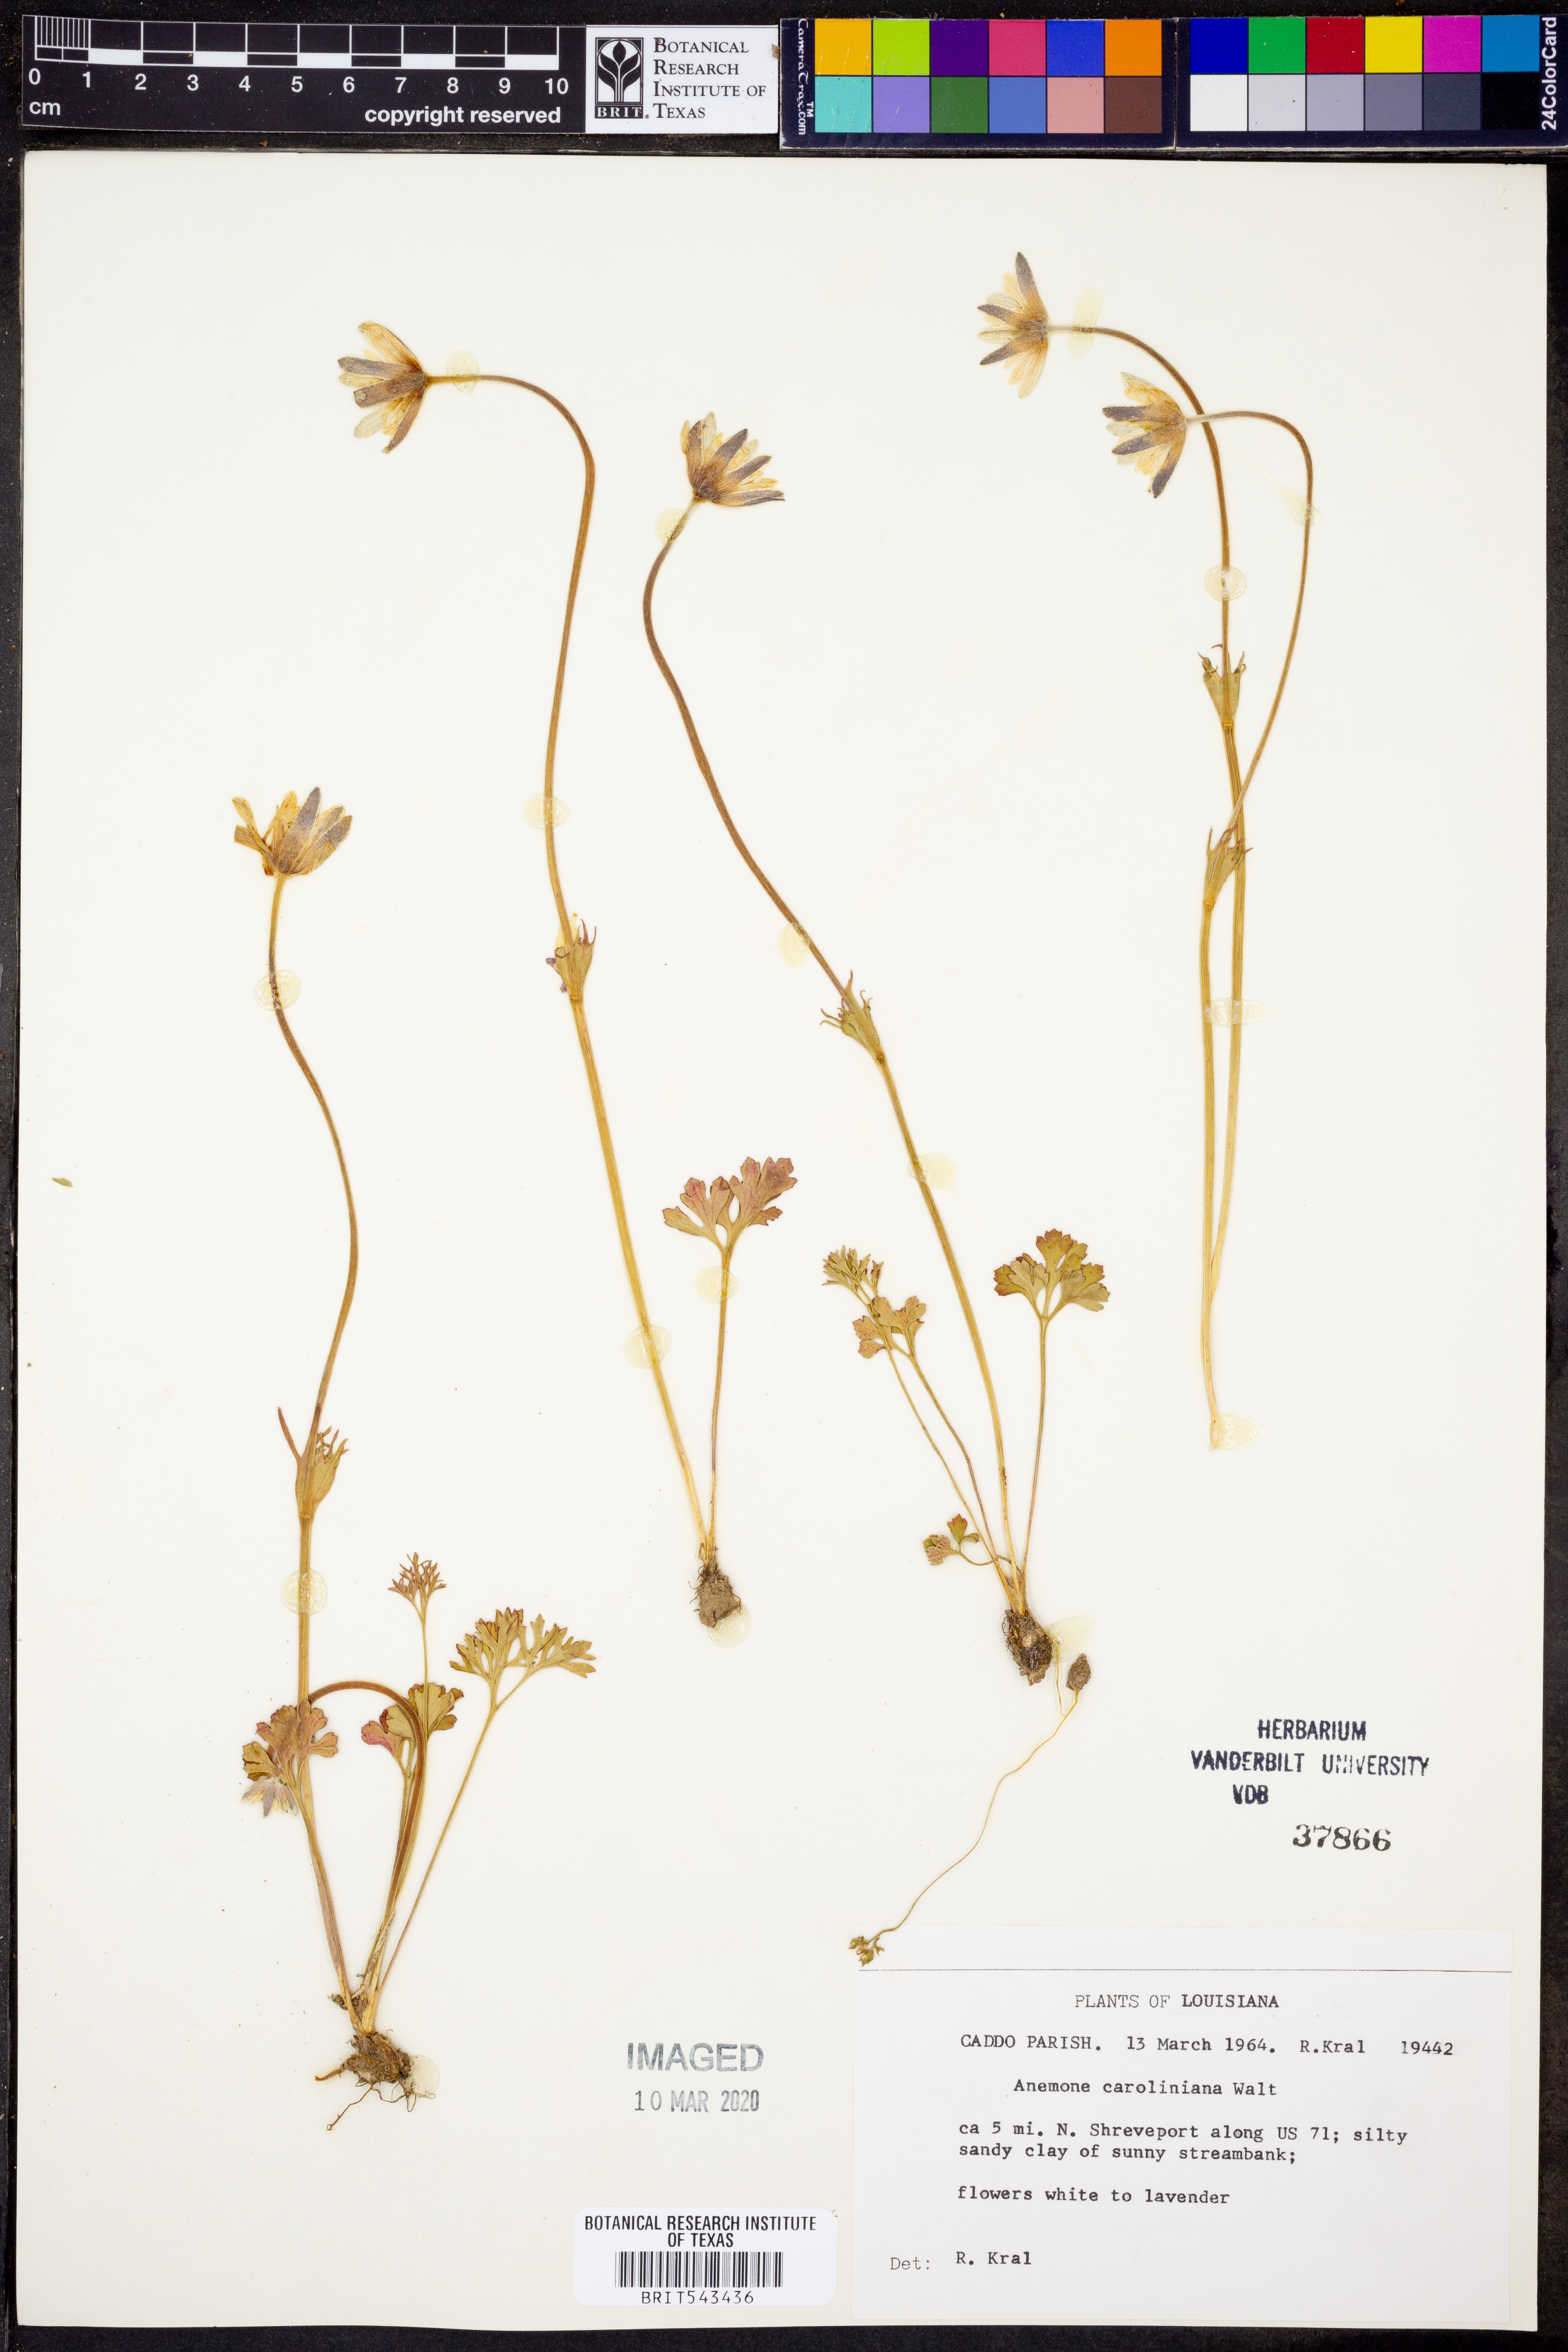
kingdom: Plantae
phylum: Tracheophyta
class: Magnoliopsida
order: Ranunculales
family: Ranunculaceae
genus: Anemone
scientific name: Anemone caroliniana
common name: Carolina anemone
